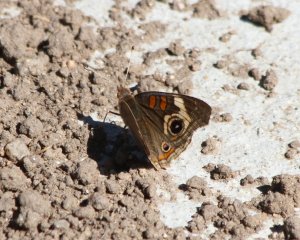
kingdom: Animalia
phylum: Arthropoda
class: Insecta
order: Lepidoptera
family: Nymphalidae
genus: Junonia
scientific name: Junonia coenia
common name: Common Buckeye
